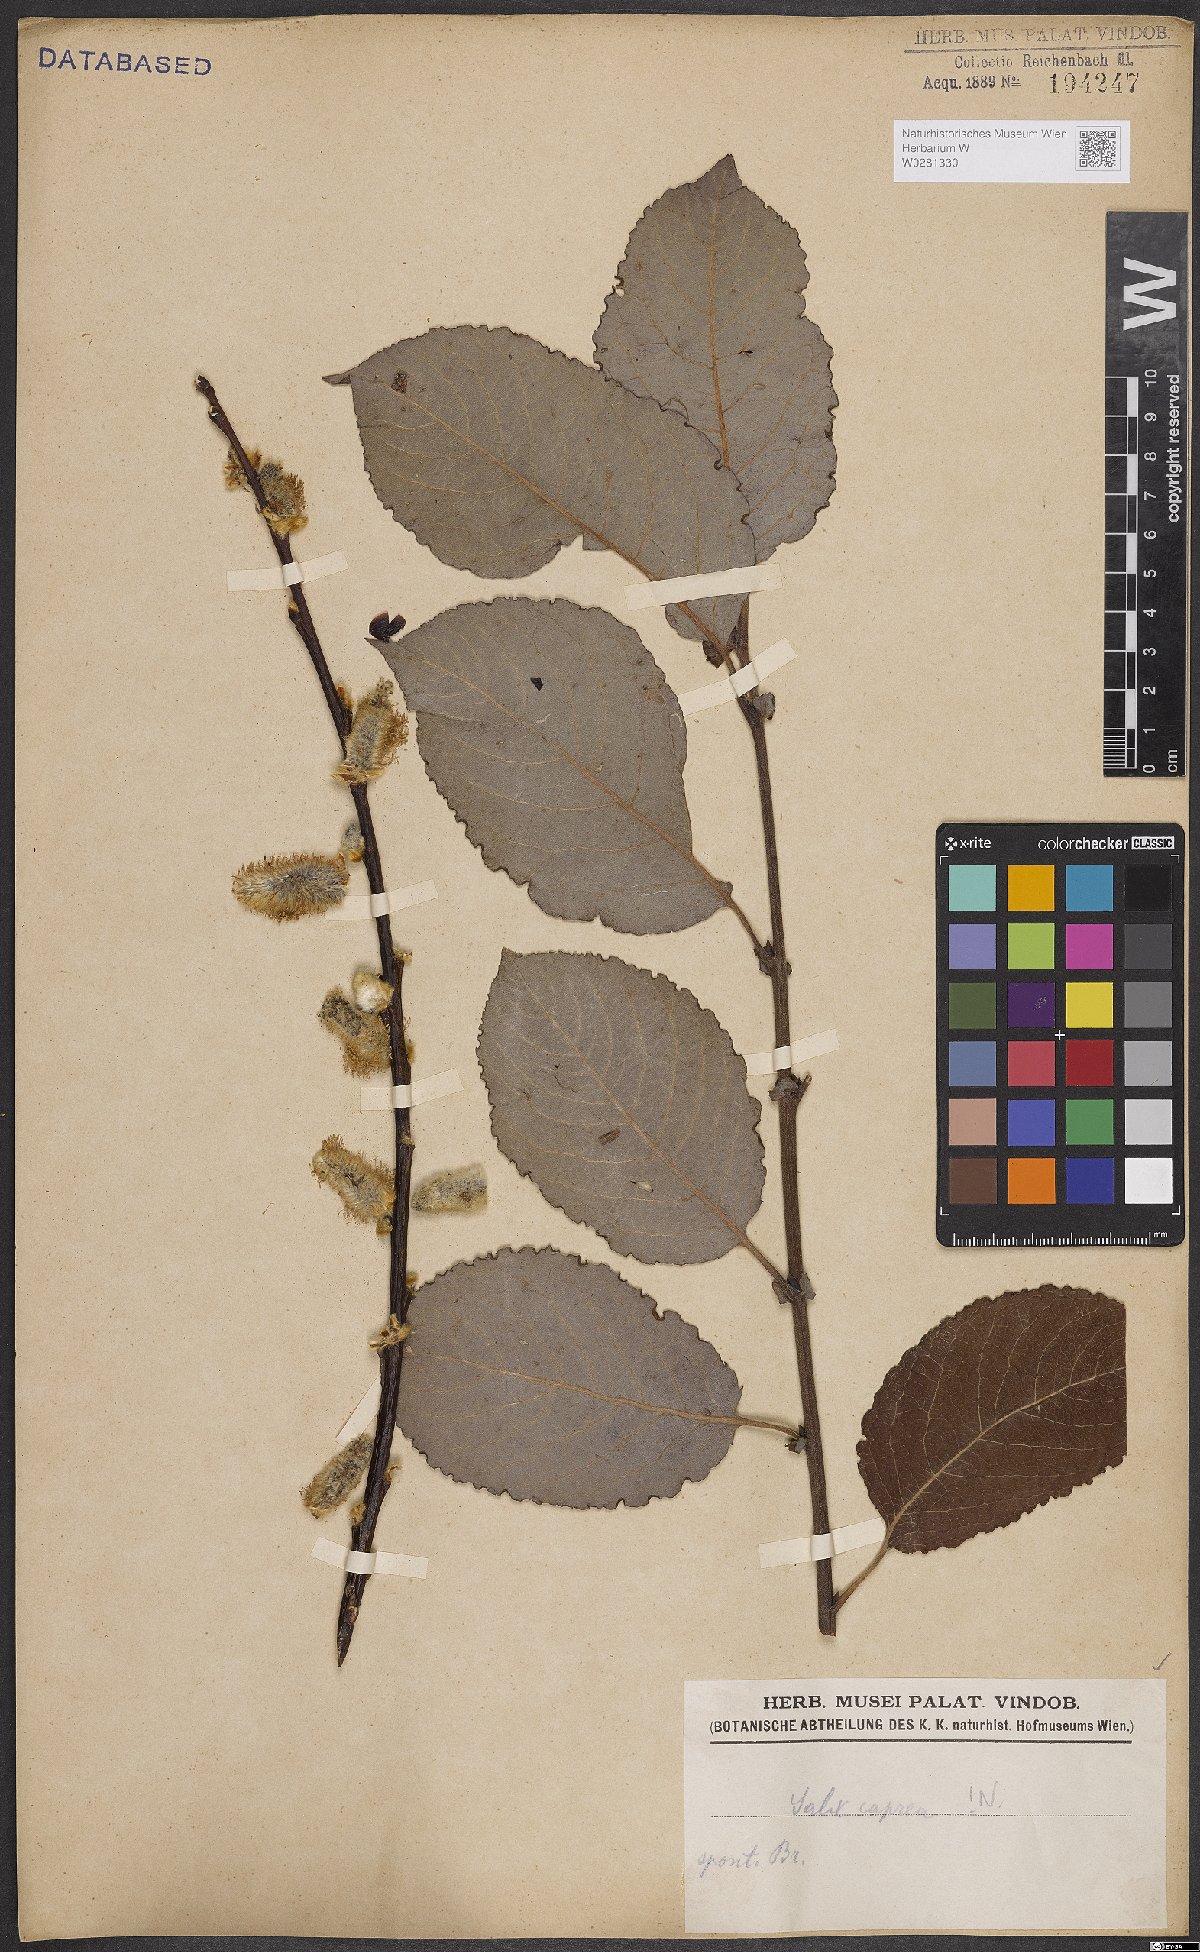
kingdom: Plantae
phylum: Tracheophyta
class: Magnoliopsida
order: Malpighiales
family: Salicaceae
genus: Salix
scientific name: Salix caprea
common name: Goat willow
